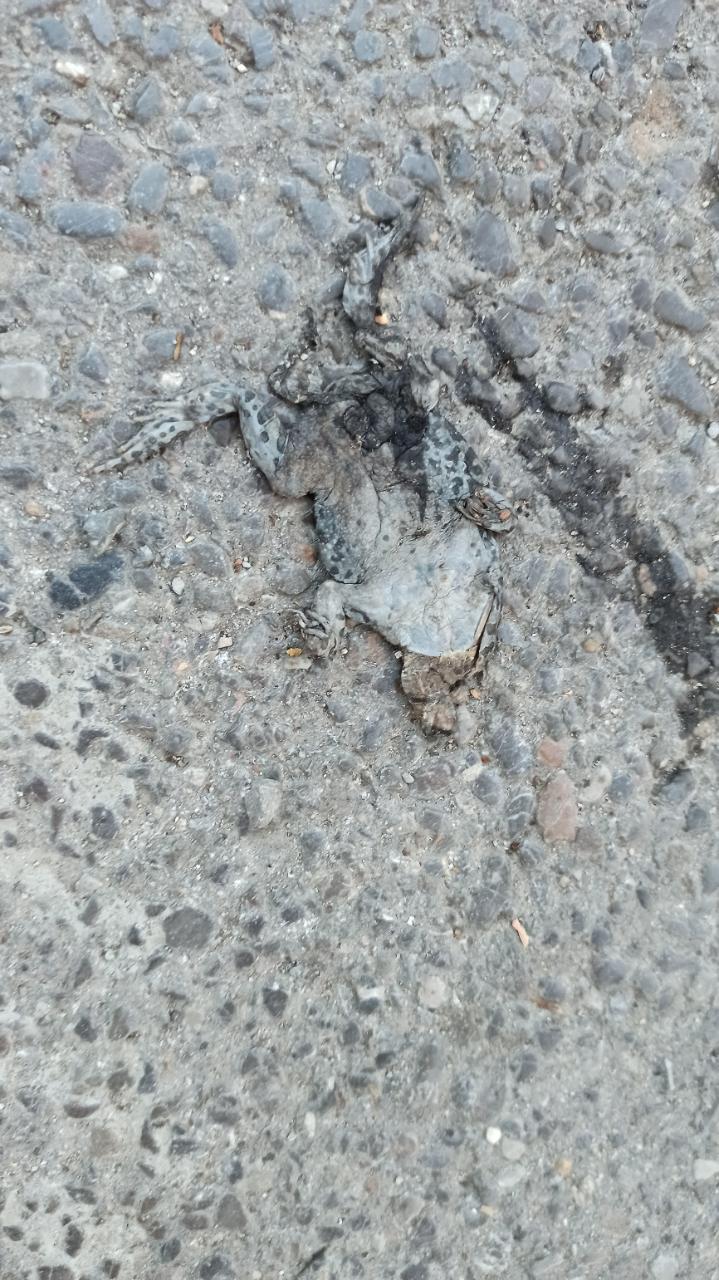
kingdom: Animalia
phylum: Chordata
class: Amphibia
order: Anura
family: Bufonidae
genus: Bufotes
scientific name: Bufotes viridis
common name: European green toad
